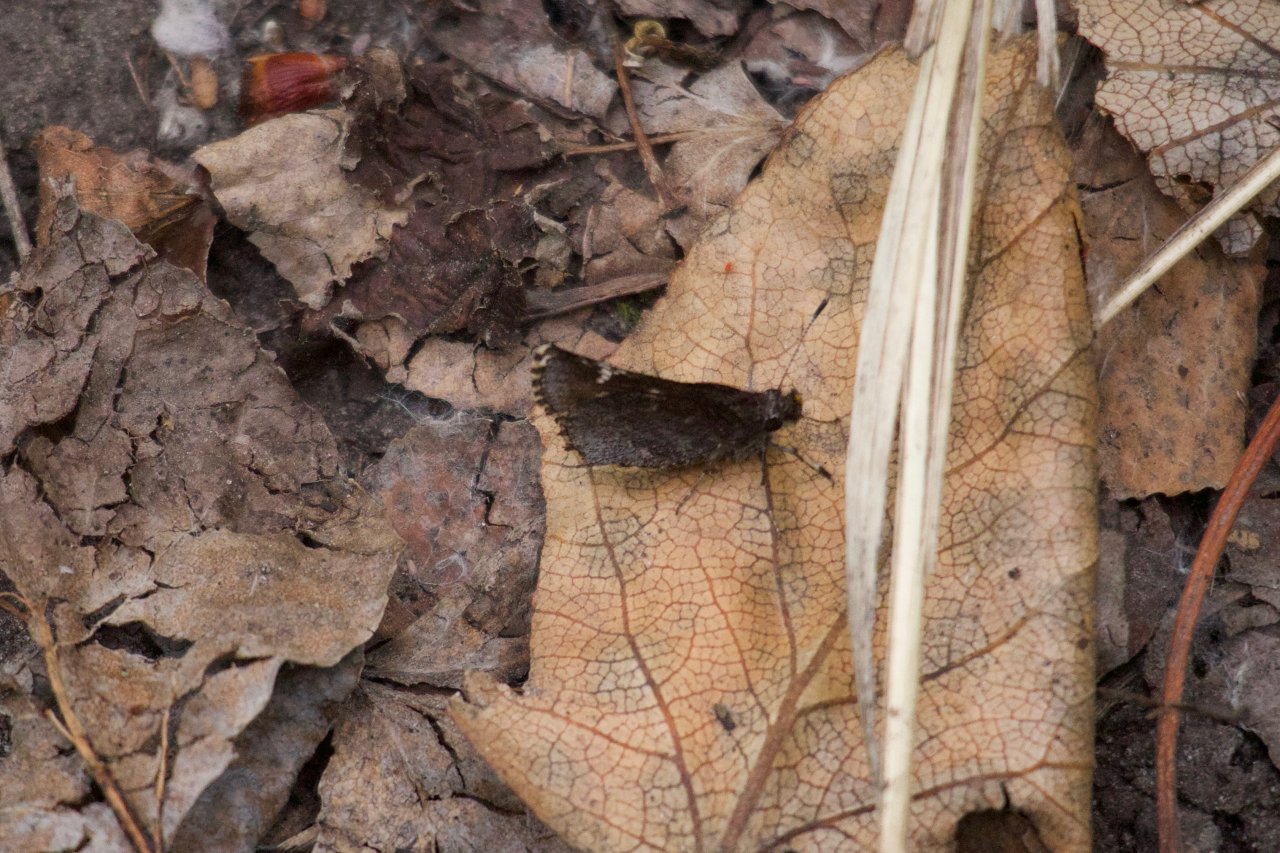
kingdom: Animalia
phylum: Arthropoda
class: Insecta
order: Lepidoptera
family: Hesperiidae
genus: Mastor
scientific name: Mastor vialis
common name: Common Roadside-Skipper
